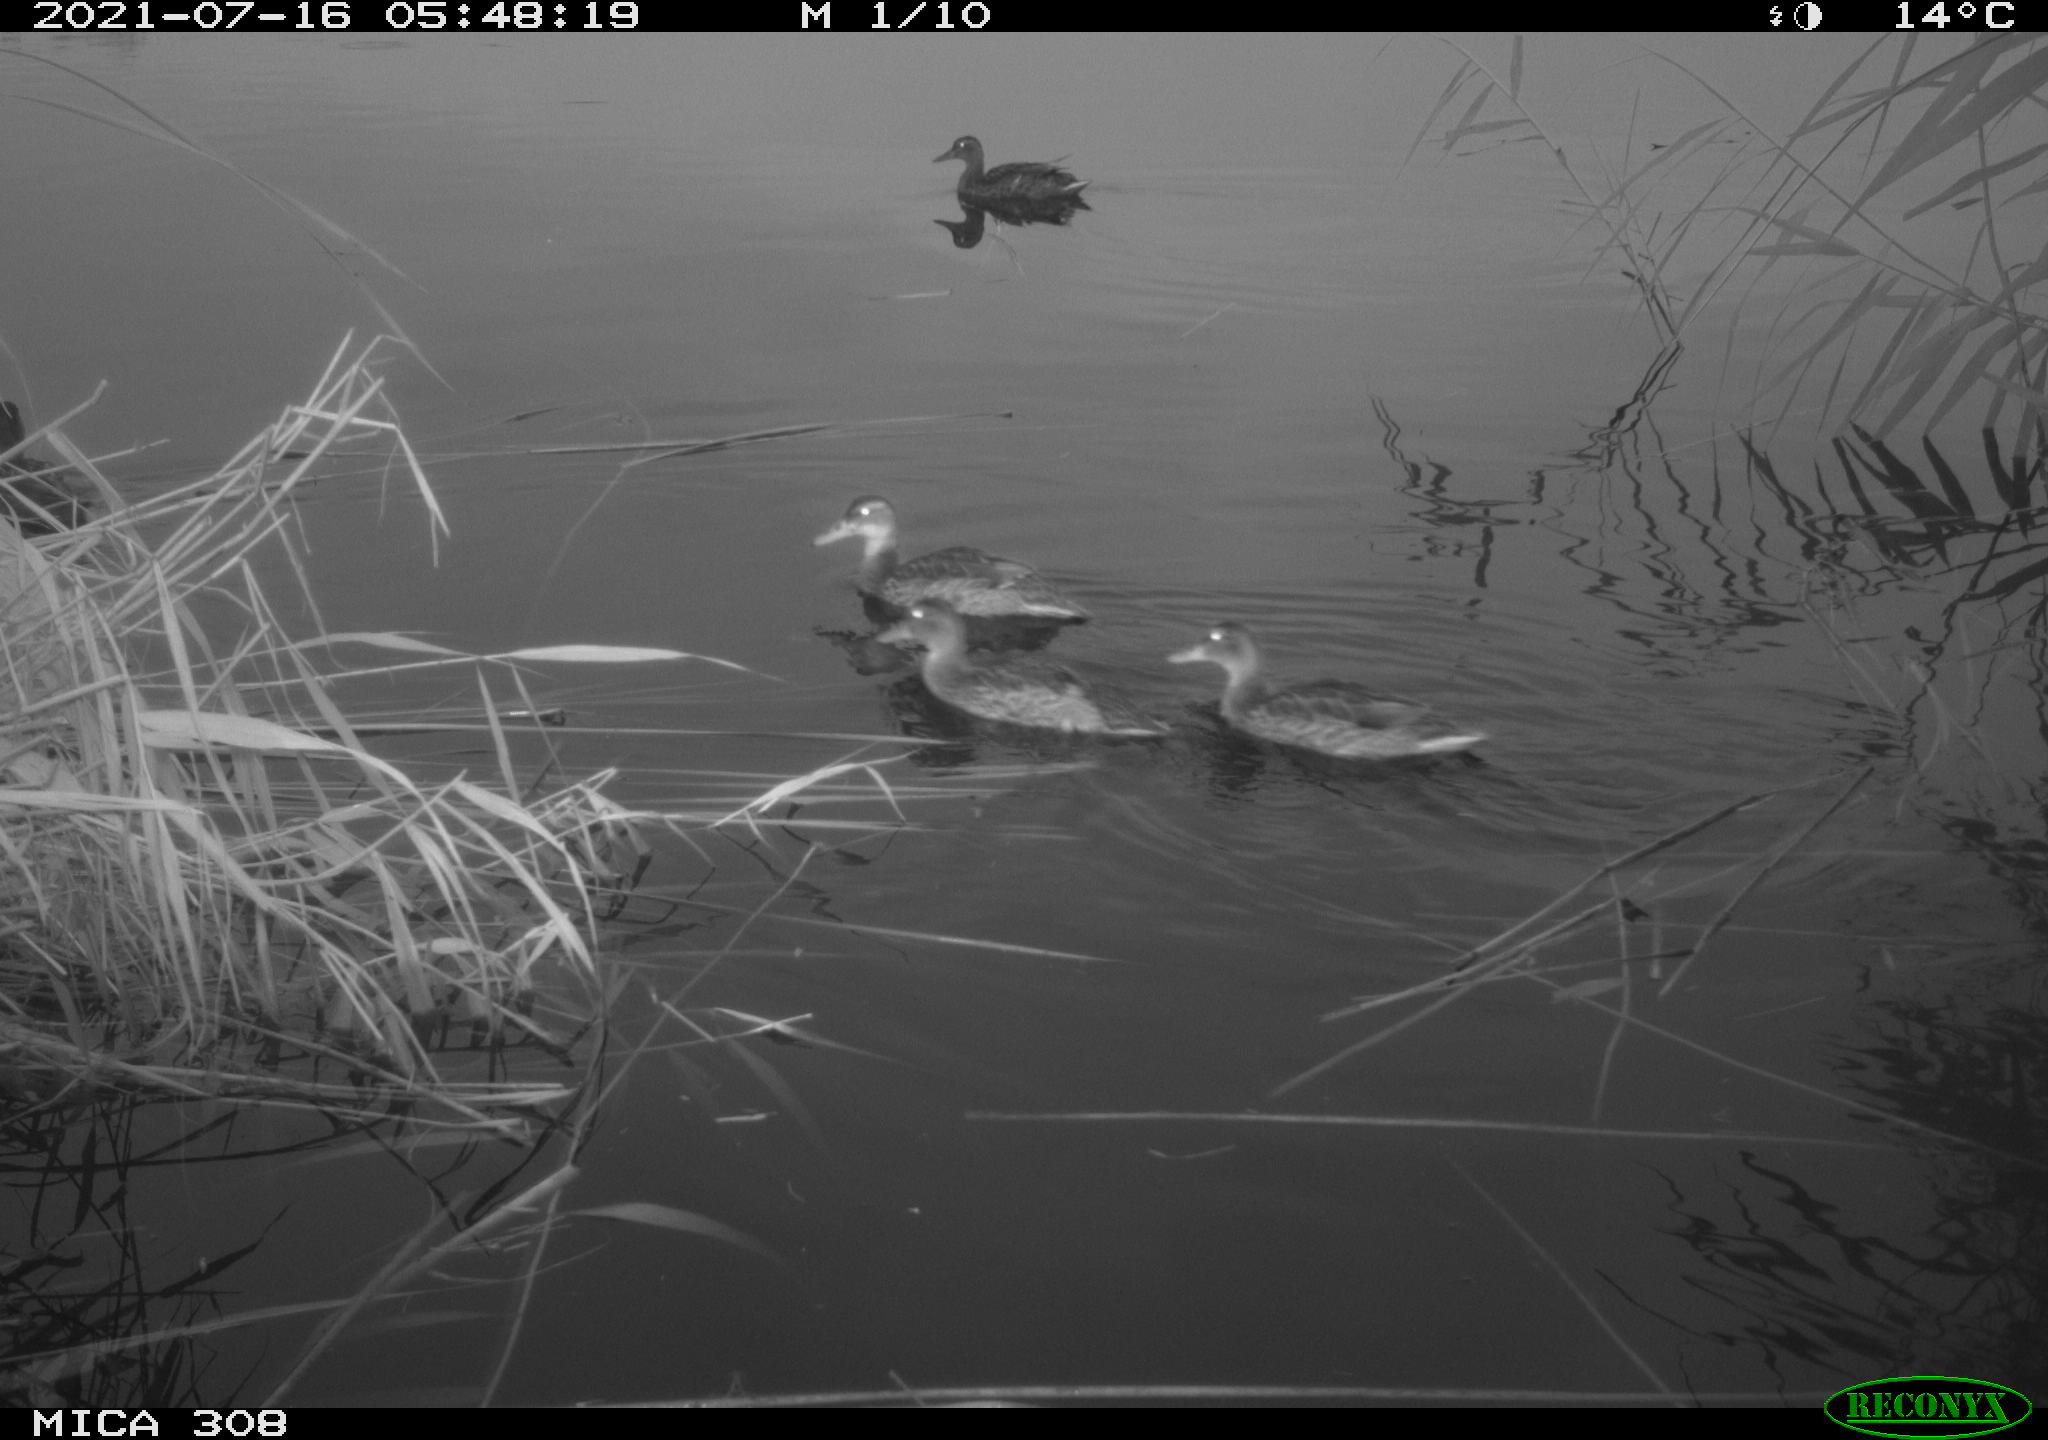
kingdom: Animalia
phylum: Chordata
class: Aves
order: Anseriformes
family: Anatidae
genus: Mareca
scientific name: Mareca strepera
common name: Gadwall
